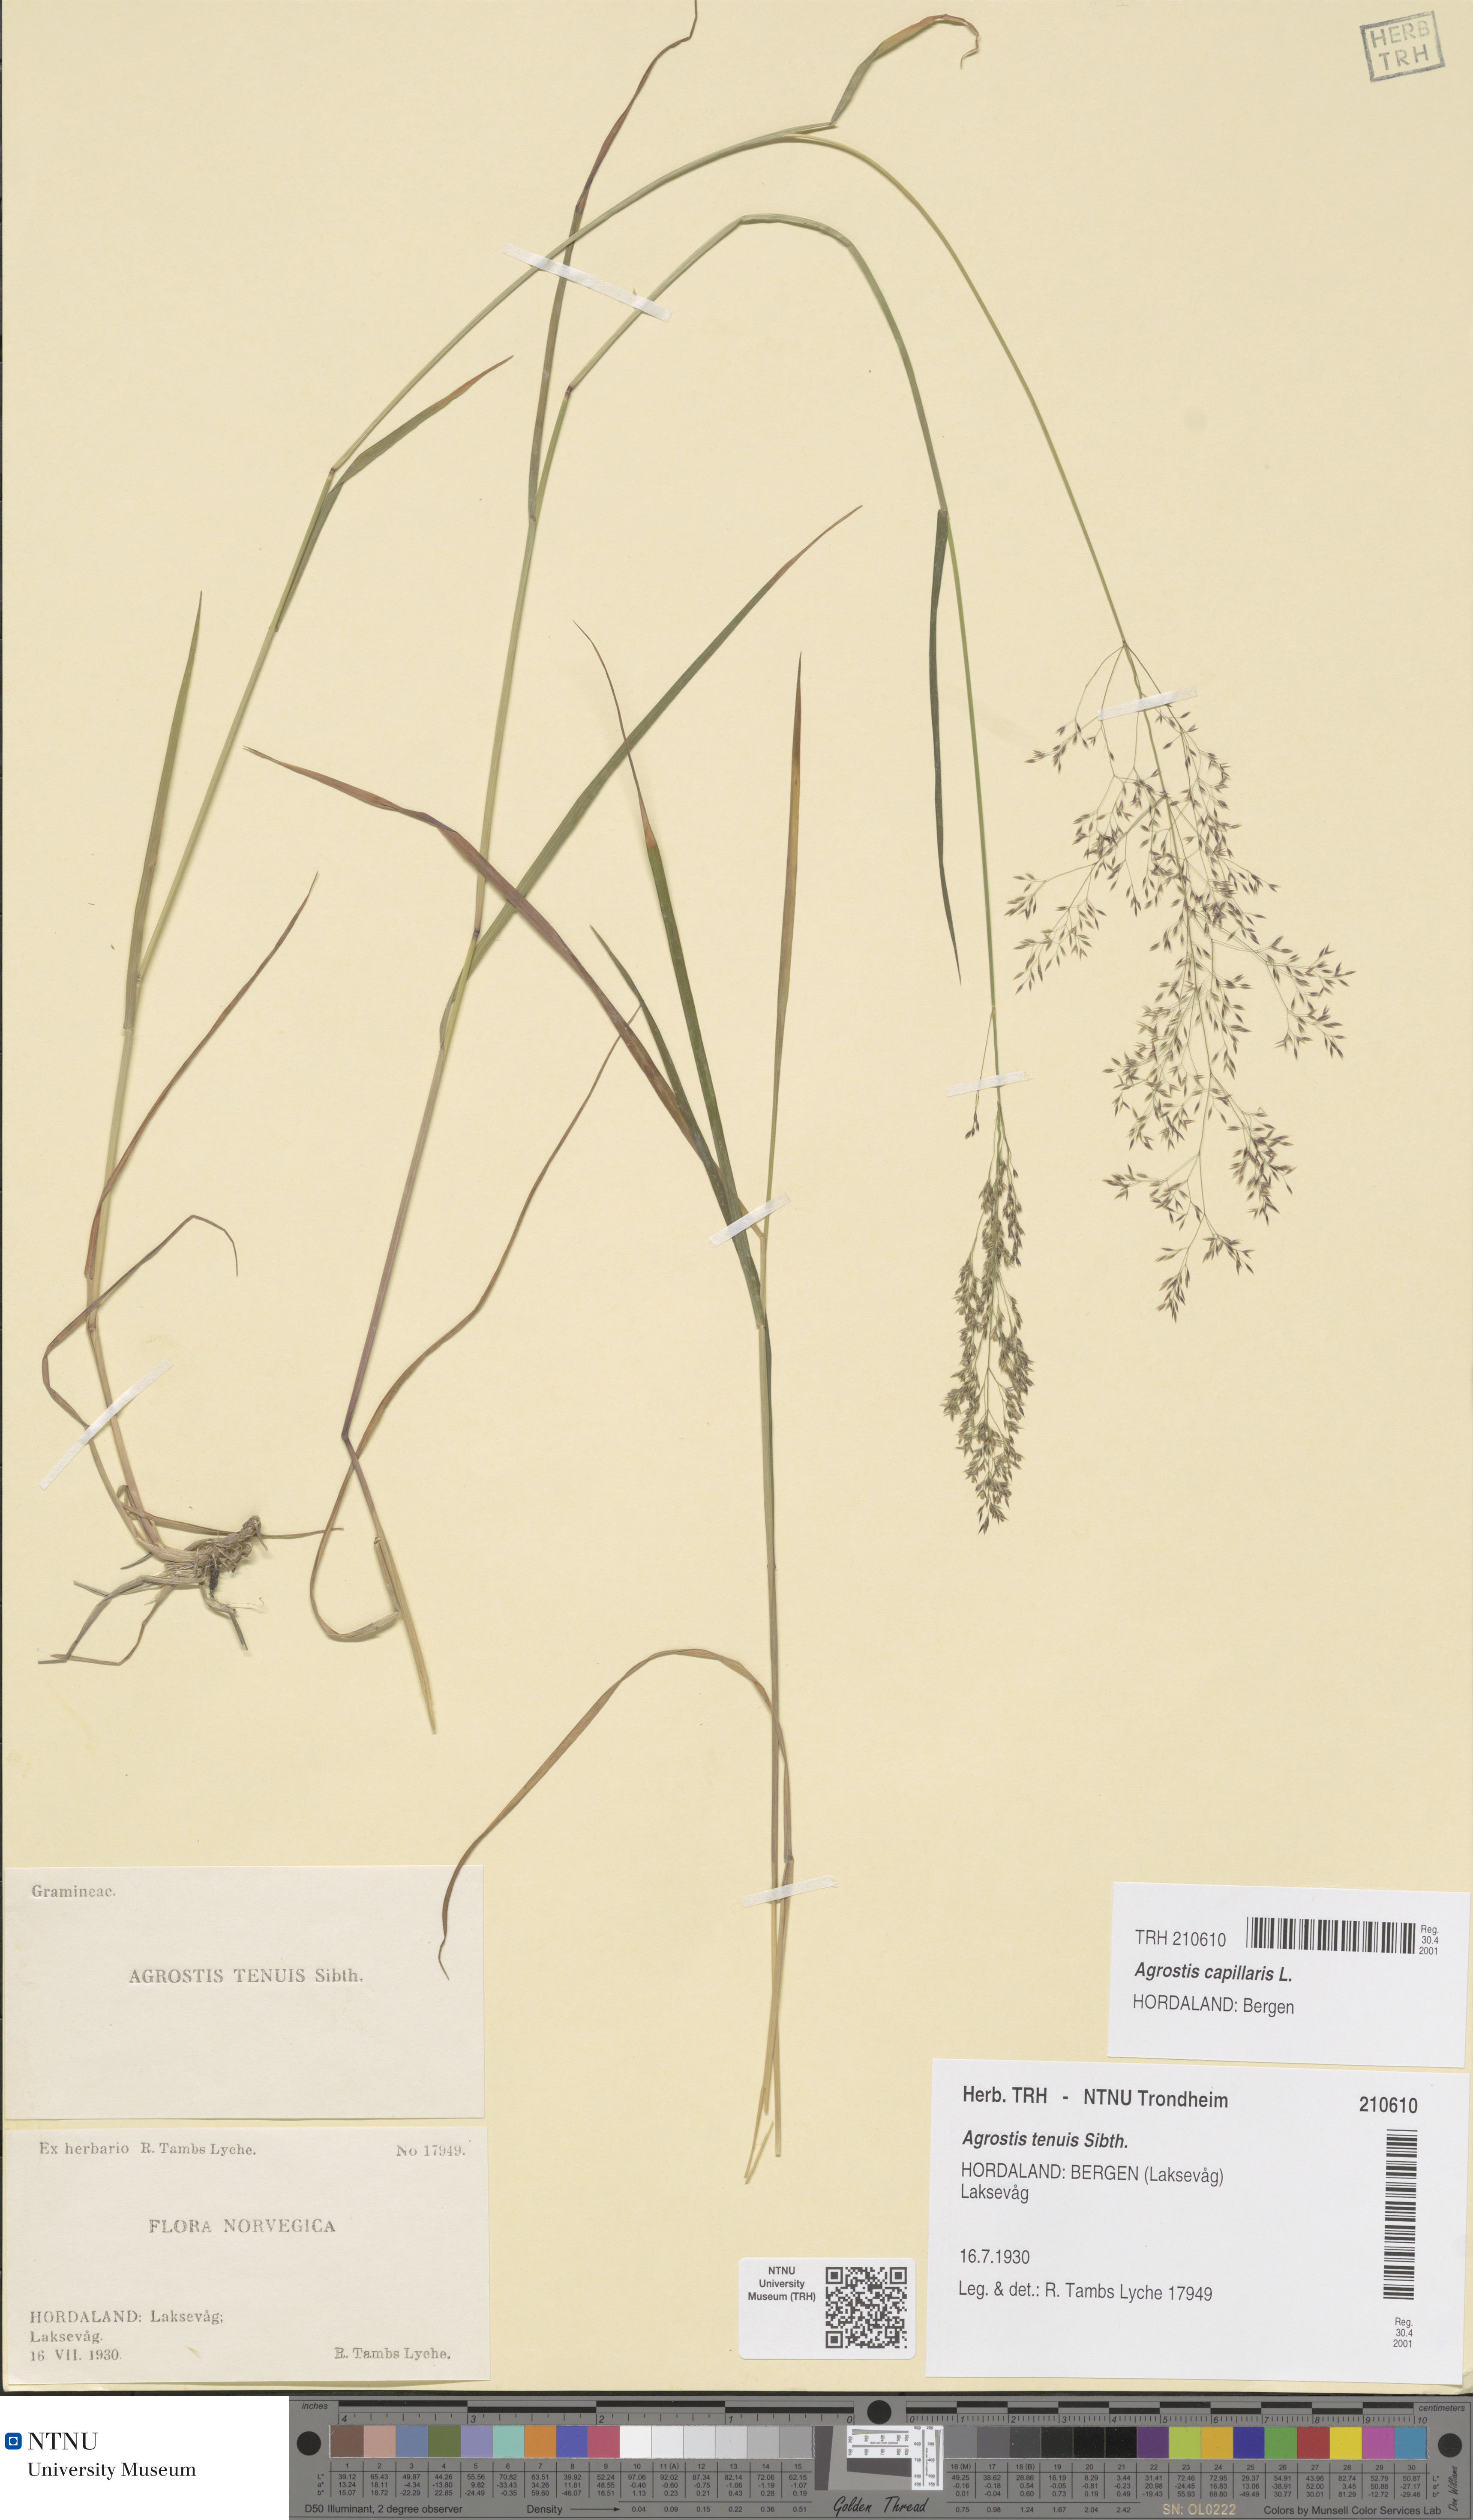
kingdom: Plantae
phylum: Tracheophyta
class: Liliopsida
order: Poales
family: Poaceae
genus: Agrostis
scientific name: Agrostis capillaris
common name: Colonial bentgrass
